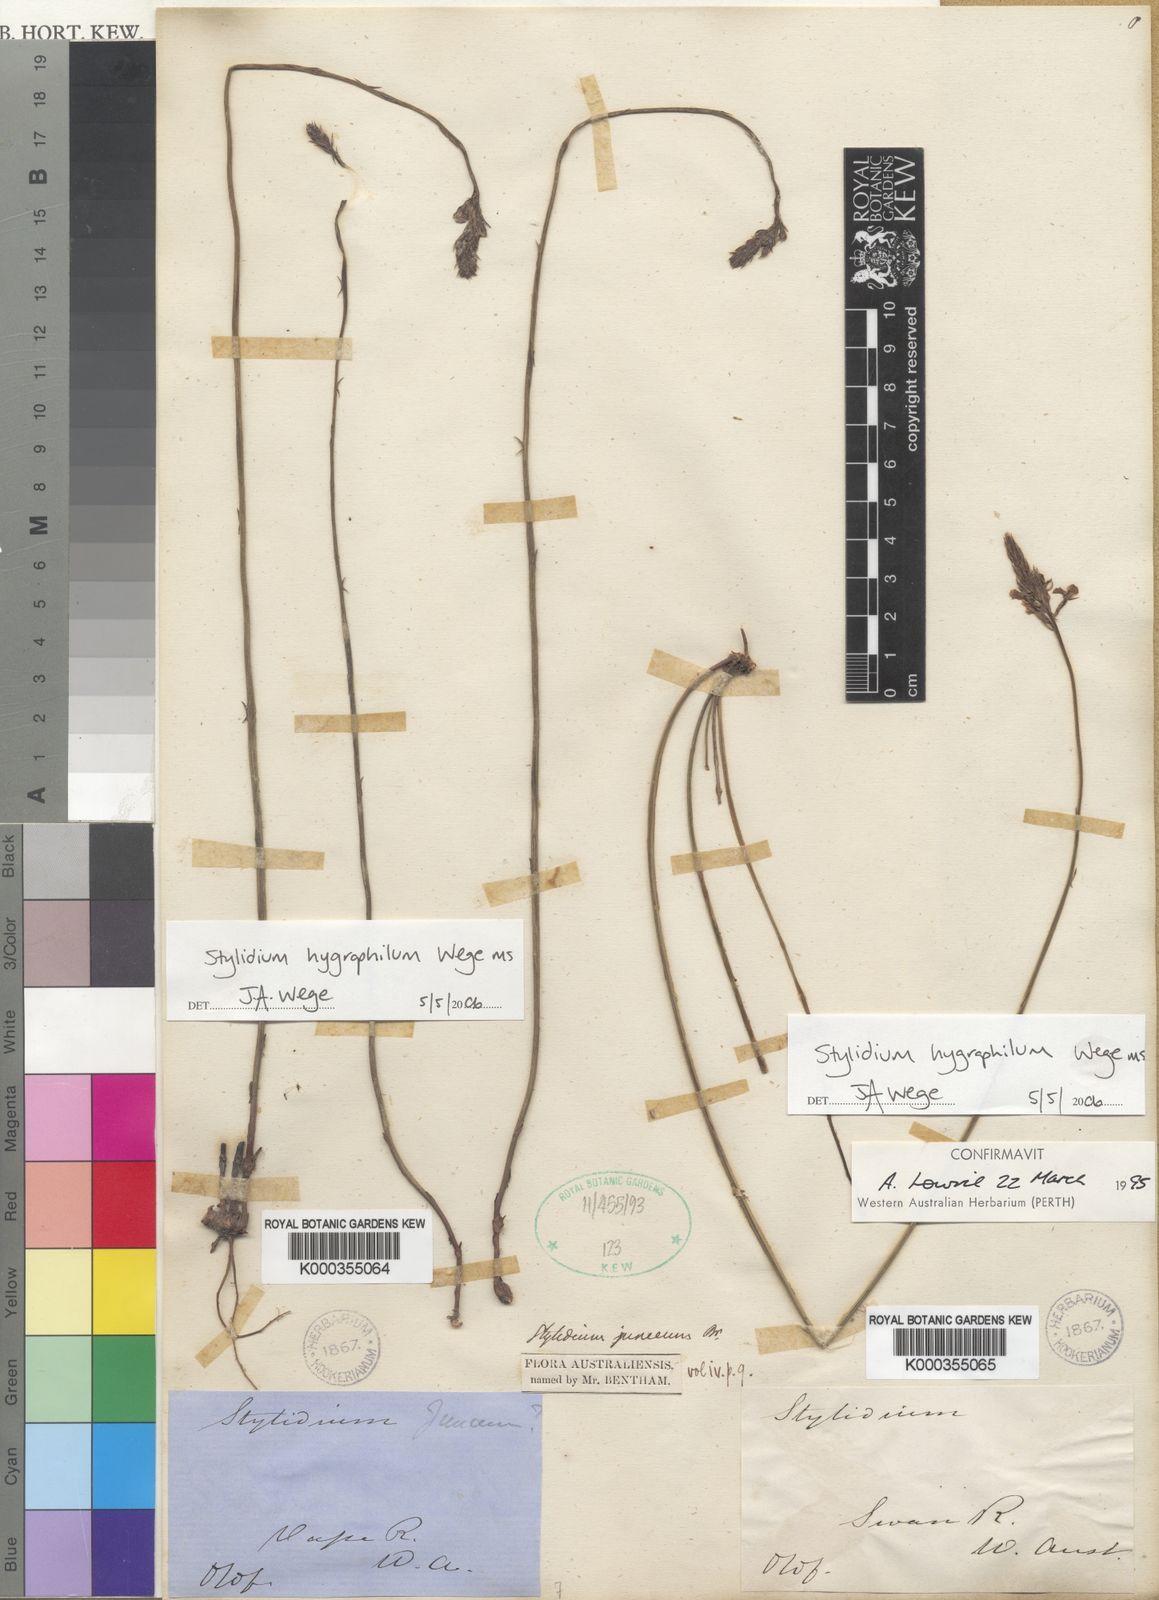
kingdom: Plantae
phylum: Tracheophyta
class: Magnoliopsida
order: Asterales
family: Stylidiaceae
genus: Stylidium
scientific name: Stylidium hygrophilum
